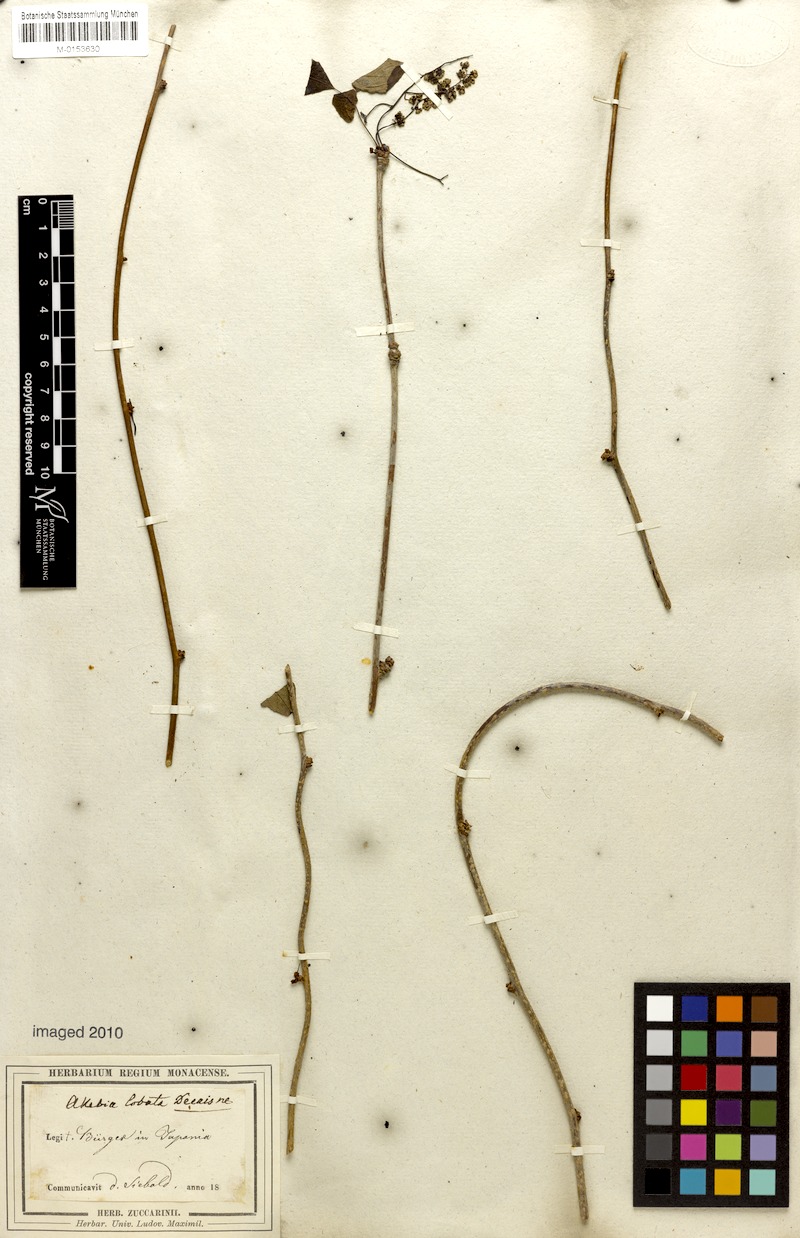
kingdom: Plantae
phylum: Tracheophyta
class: Magnoliopsida
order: Ranunculales
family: Lardizabalaceae
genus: Akebia
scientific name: Akebia trifoliata
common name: Chocolate-vine
